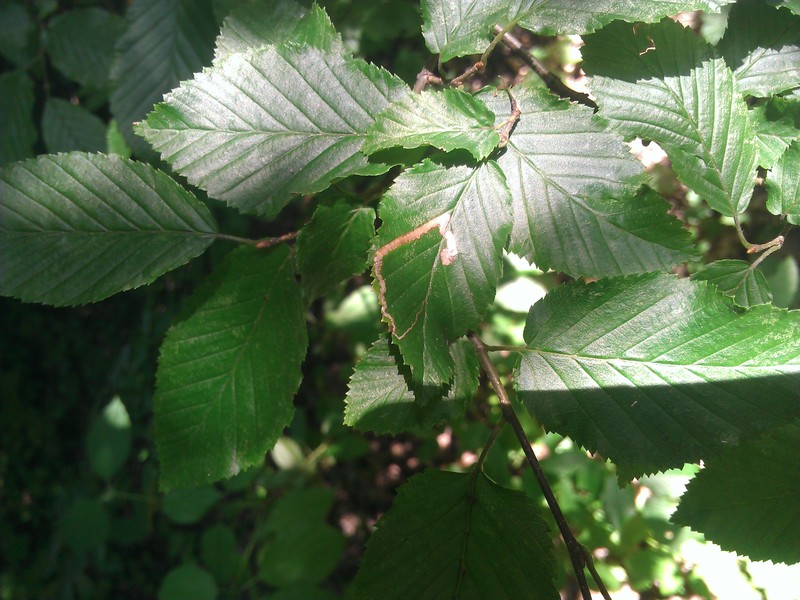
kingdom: Animalia
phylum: Arthropoda
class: Insecta
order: Lepidoptera
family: Nepticulidae
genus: Stigmella
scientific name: Stigmella carpinella
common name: Hornbeam pigmy
